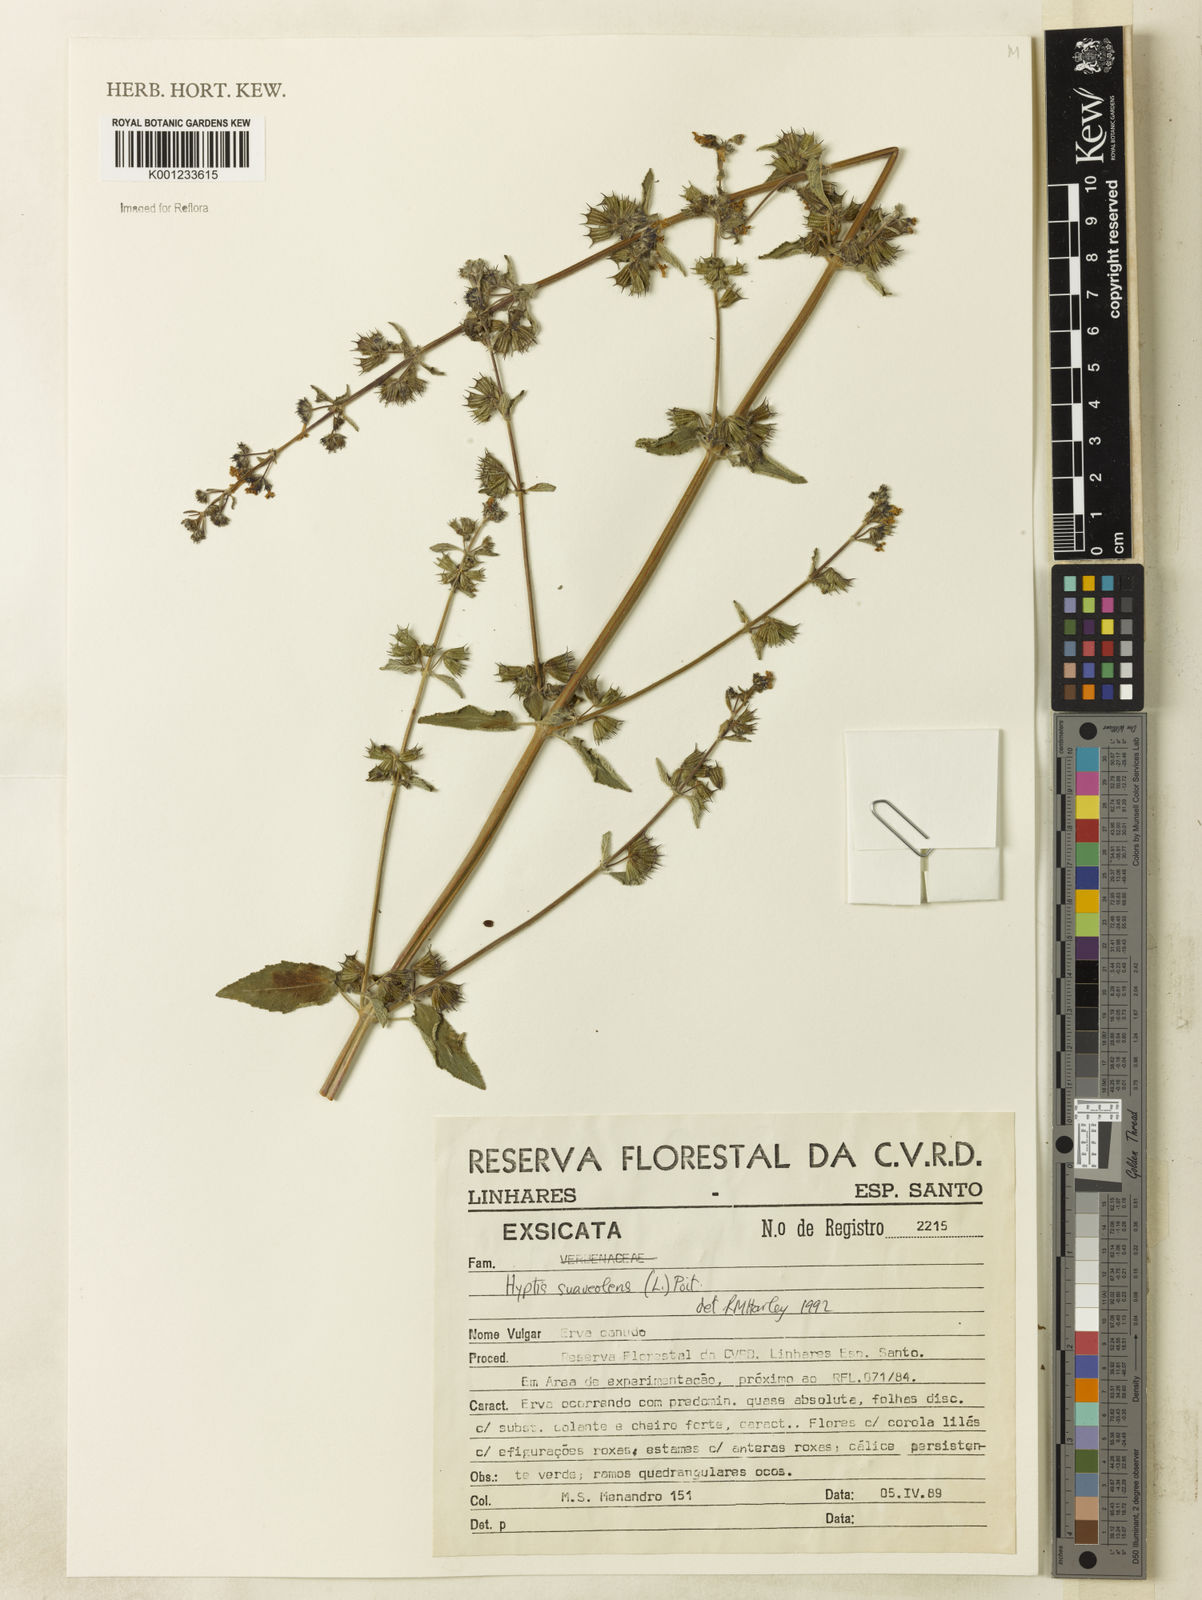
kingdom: Plantae
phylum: Tracheophyta
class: Magnoliopsida
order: Lamiales
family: Lamiaceae
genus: Mesosphaerum
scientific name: Mesosphaerum suaveolens
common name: Pignut
